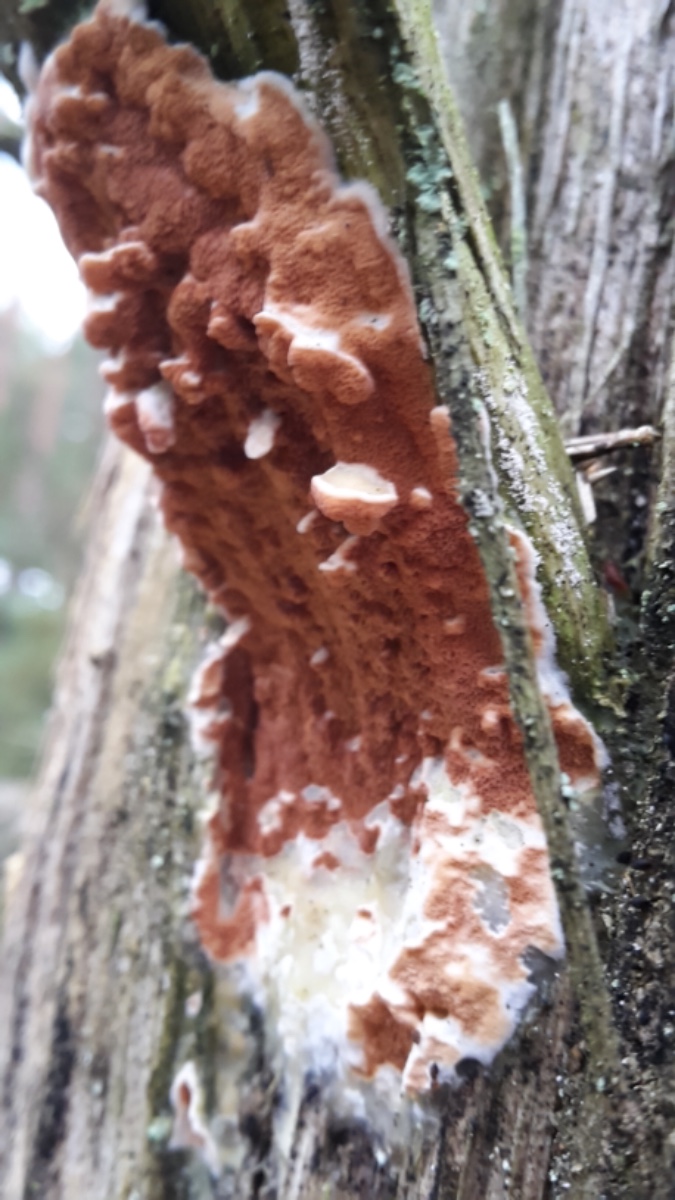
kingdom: Fungi
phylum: Basidiomycota
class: Agaricomycetes
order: Polyporales
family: Irpicaceae
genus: Meruliopsis
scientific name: Meruliopsis taxicola
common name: purpurbrun foldporesvamp
